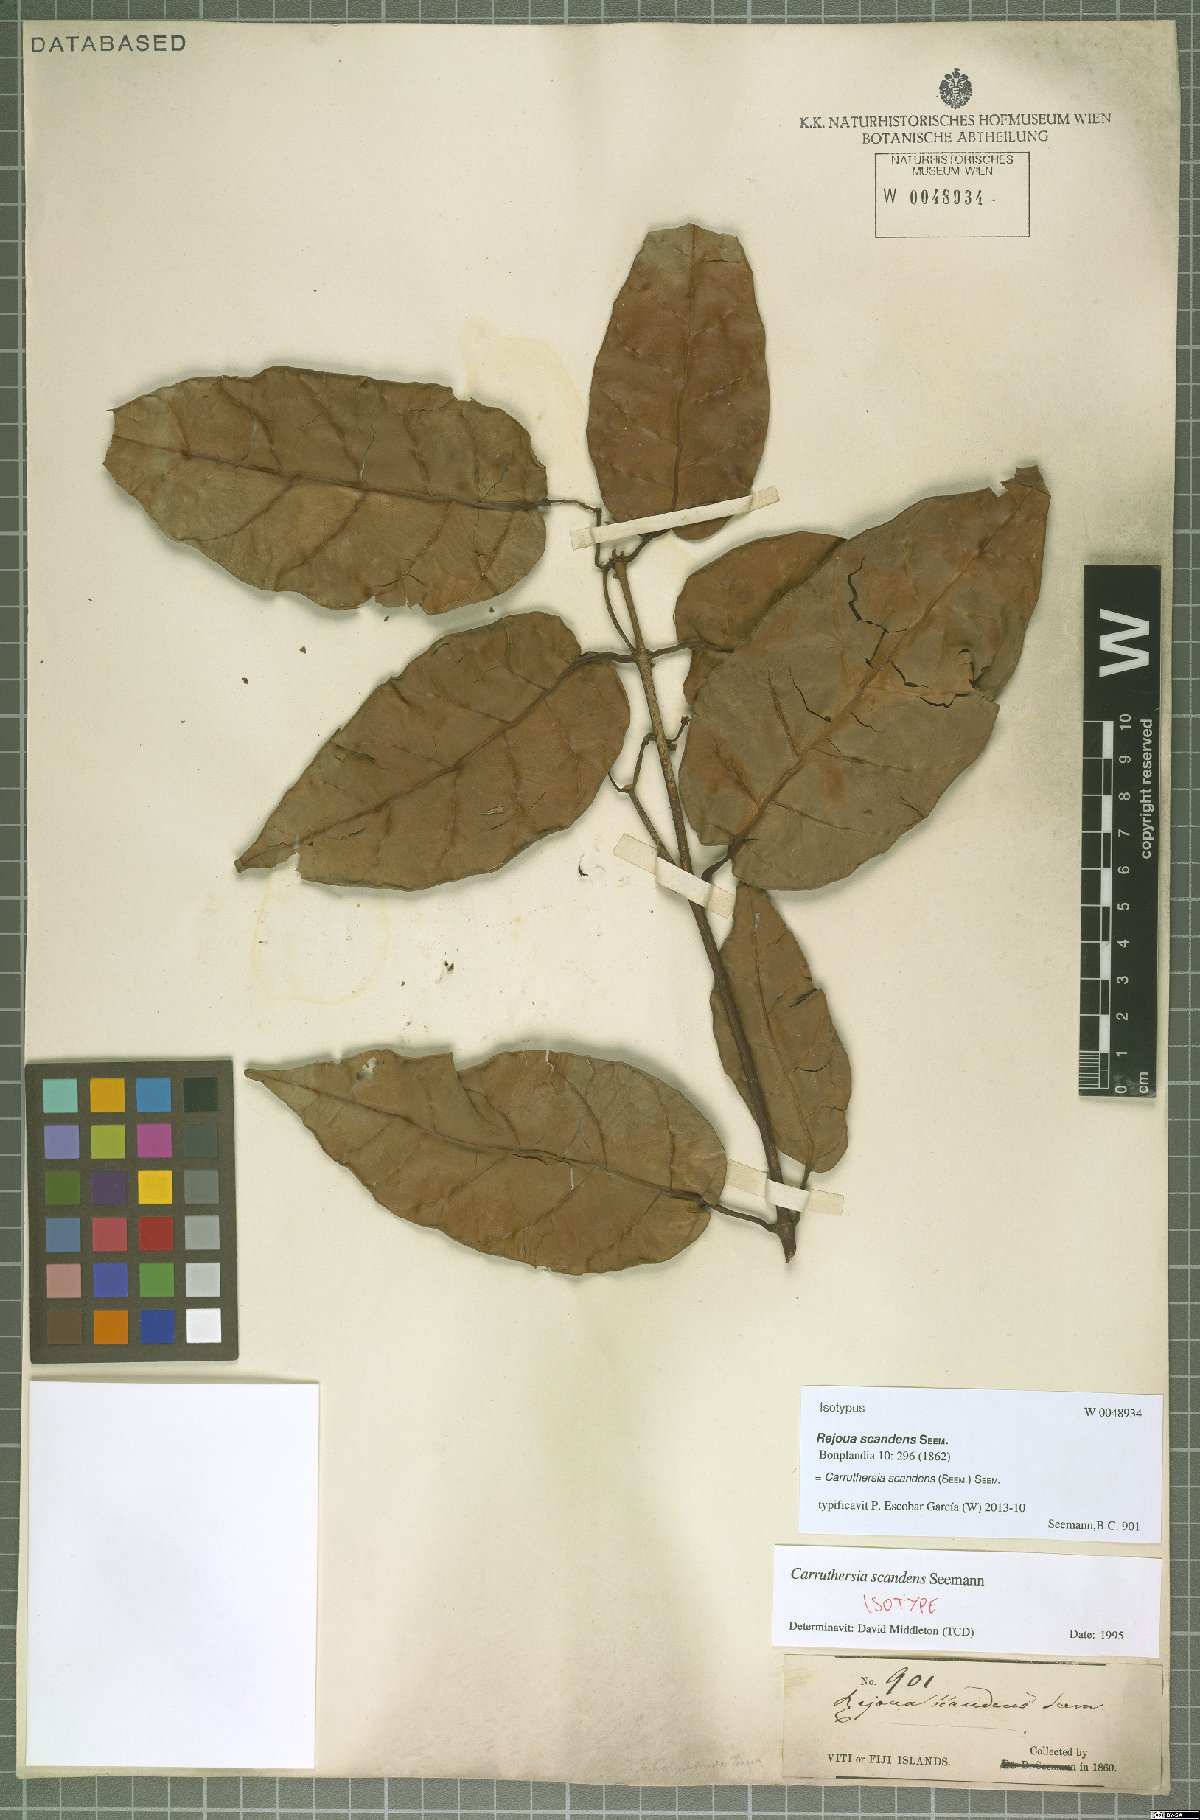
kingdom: Plantae
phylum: Tracheophyta
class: Magnoliopsida
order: Gentianales
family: Apocynaceae
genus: Carruthersia
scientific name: Carruthersia scandens
